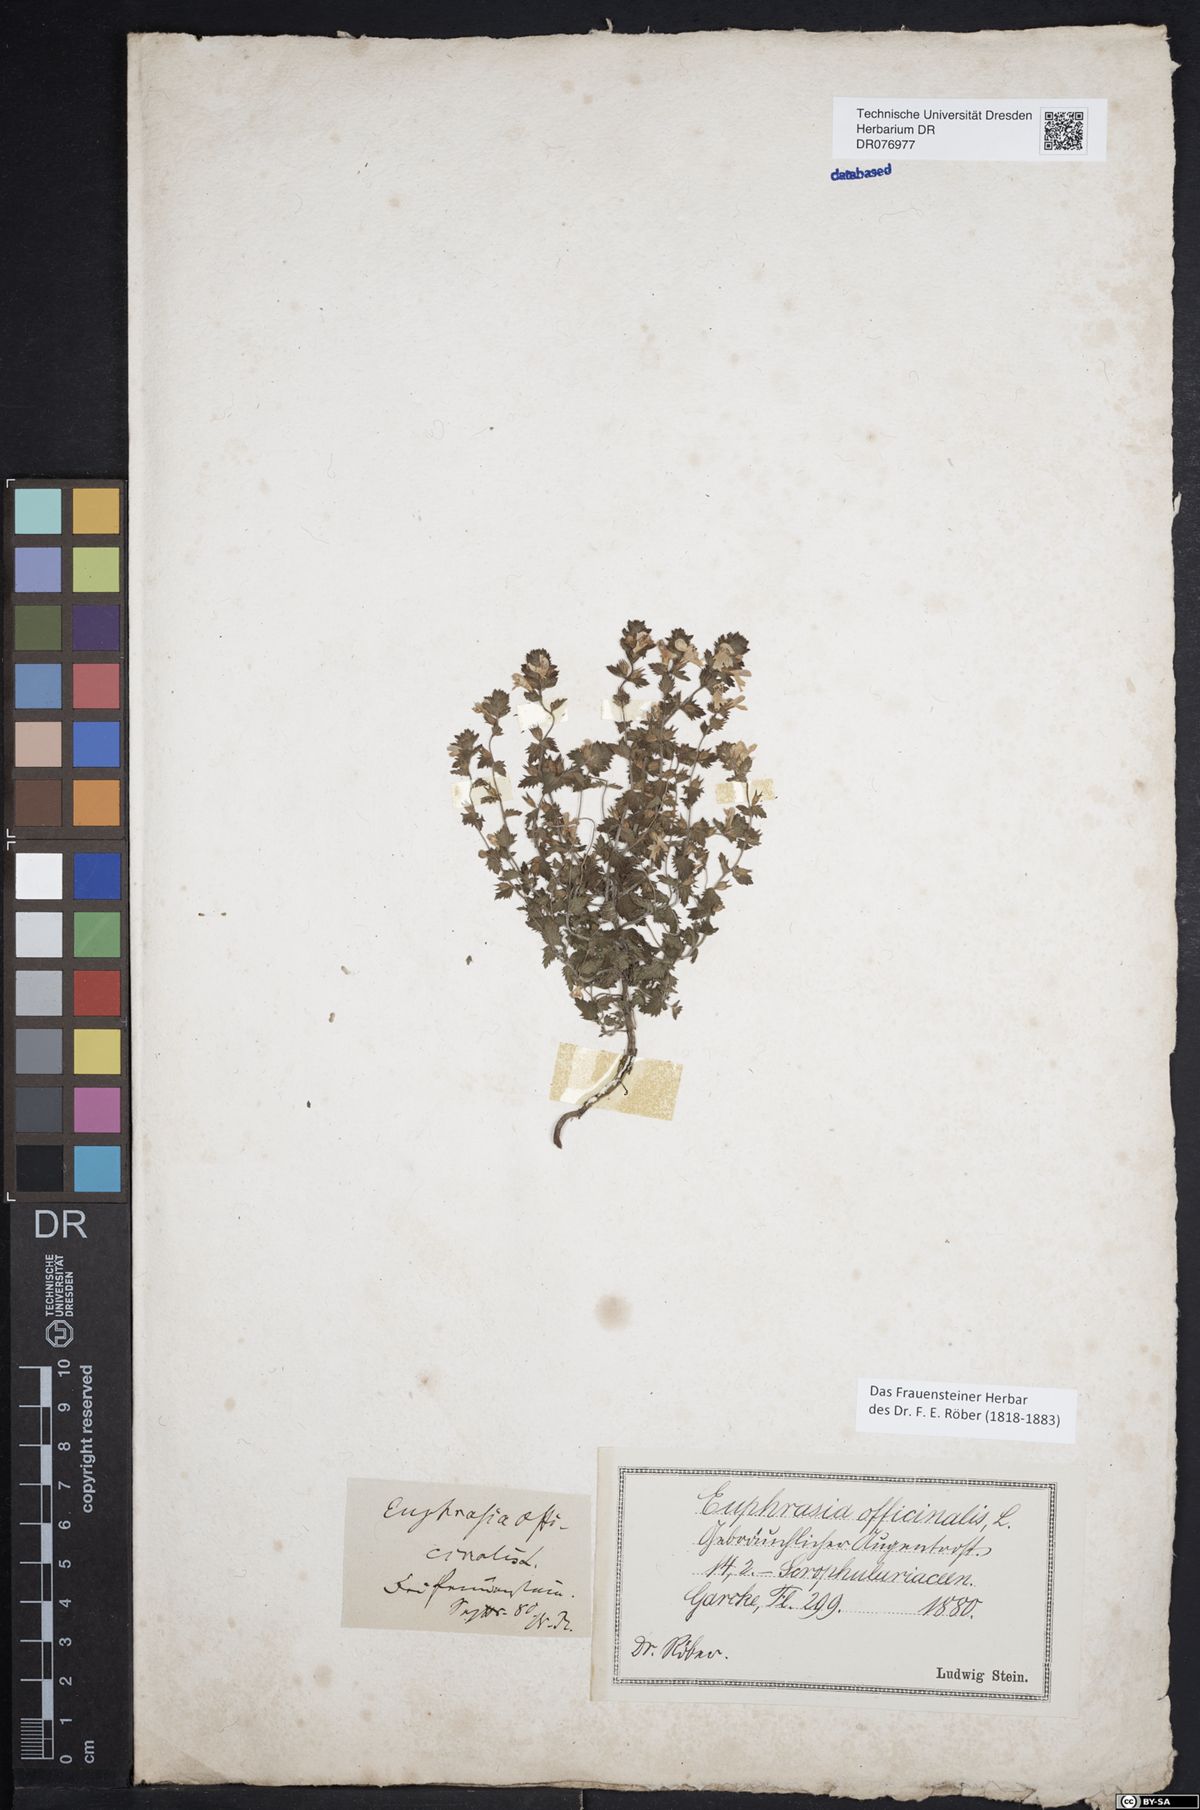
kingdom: Plantae
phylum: Tracheophyta
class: Magnoliopsida
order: Lamiales
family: Orobanchaceae
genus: Euphrasia
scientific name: Euphrasia officinalis
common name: Eyebright
